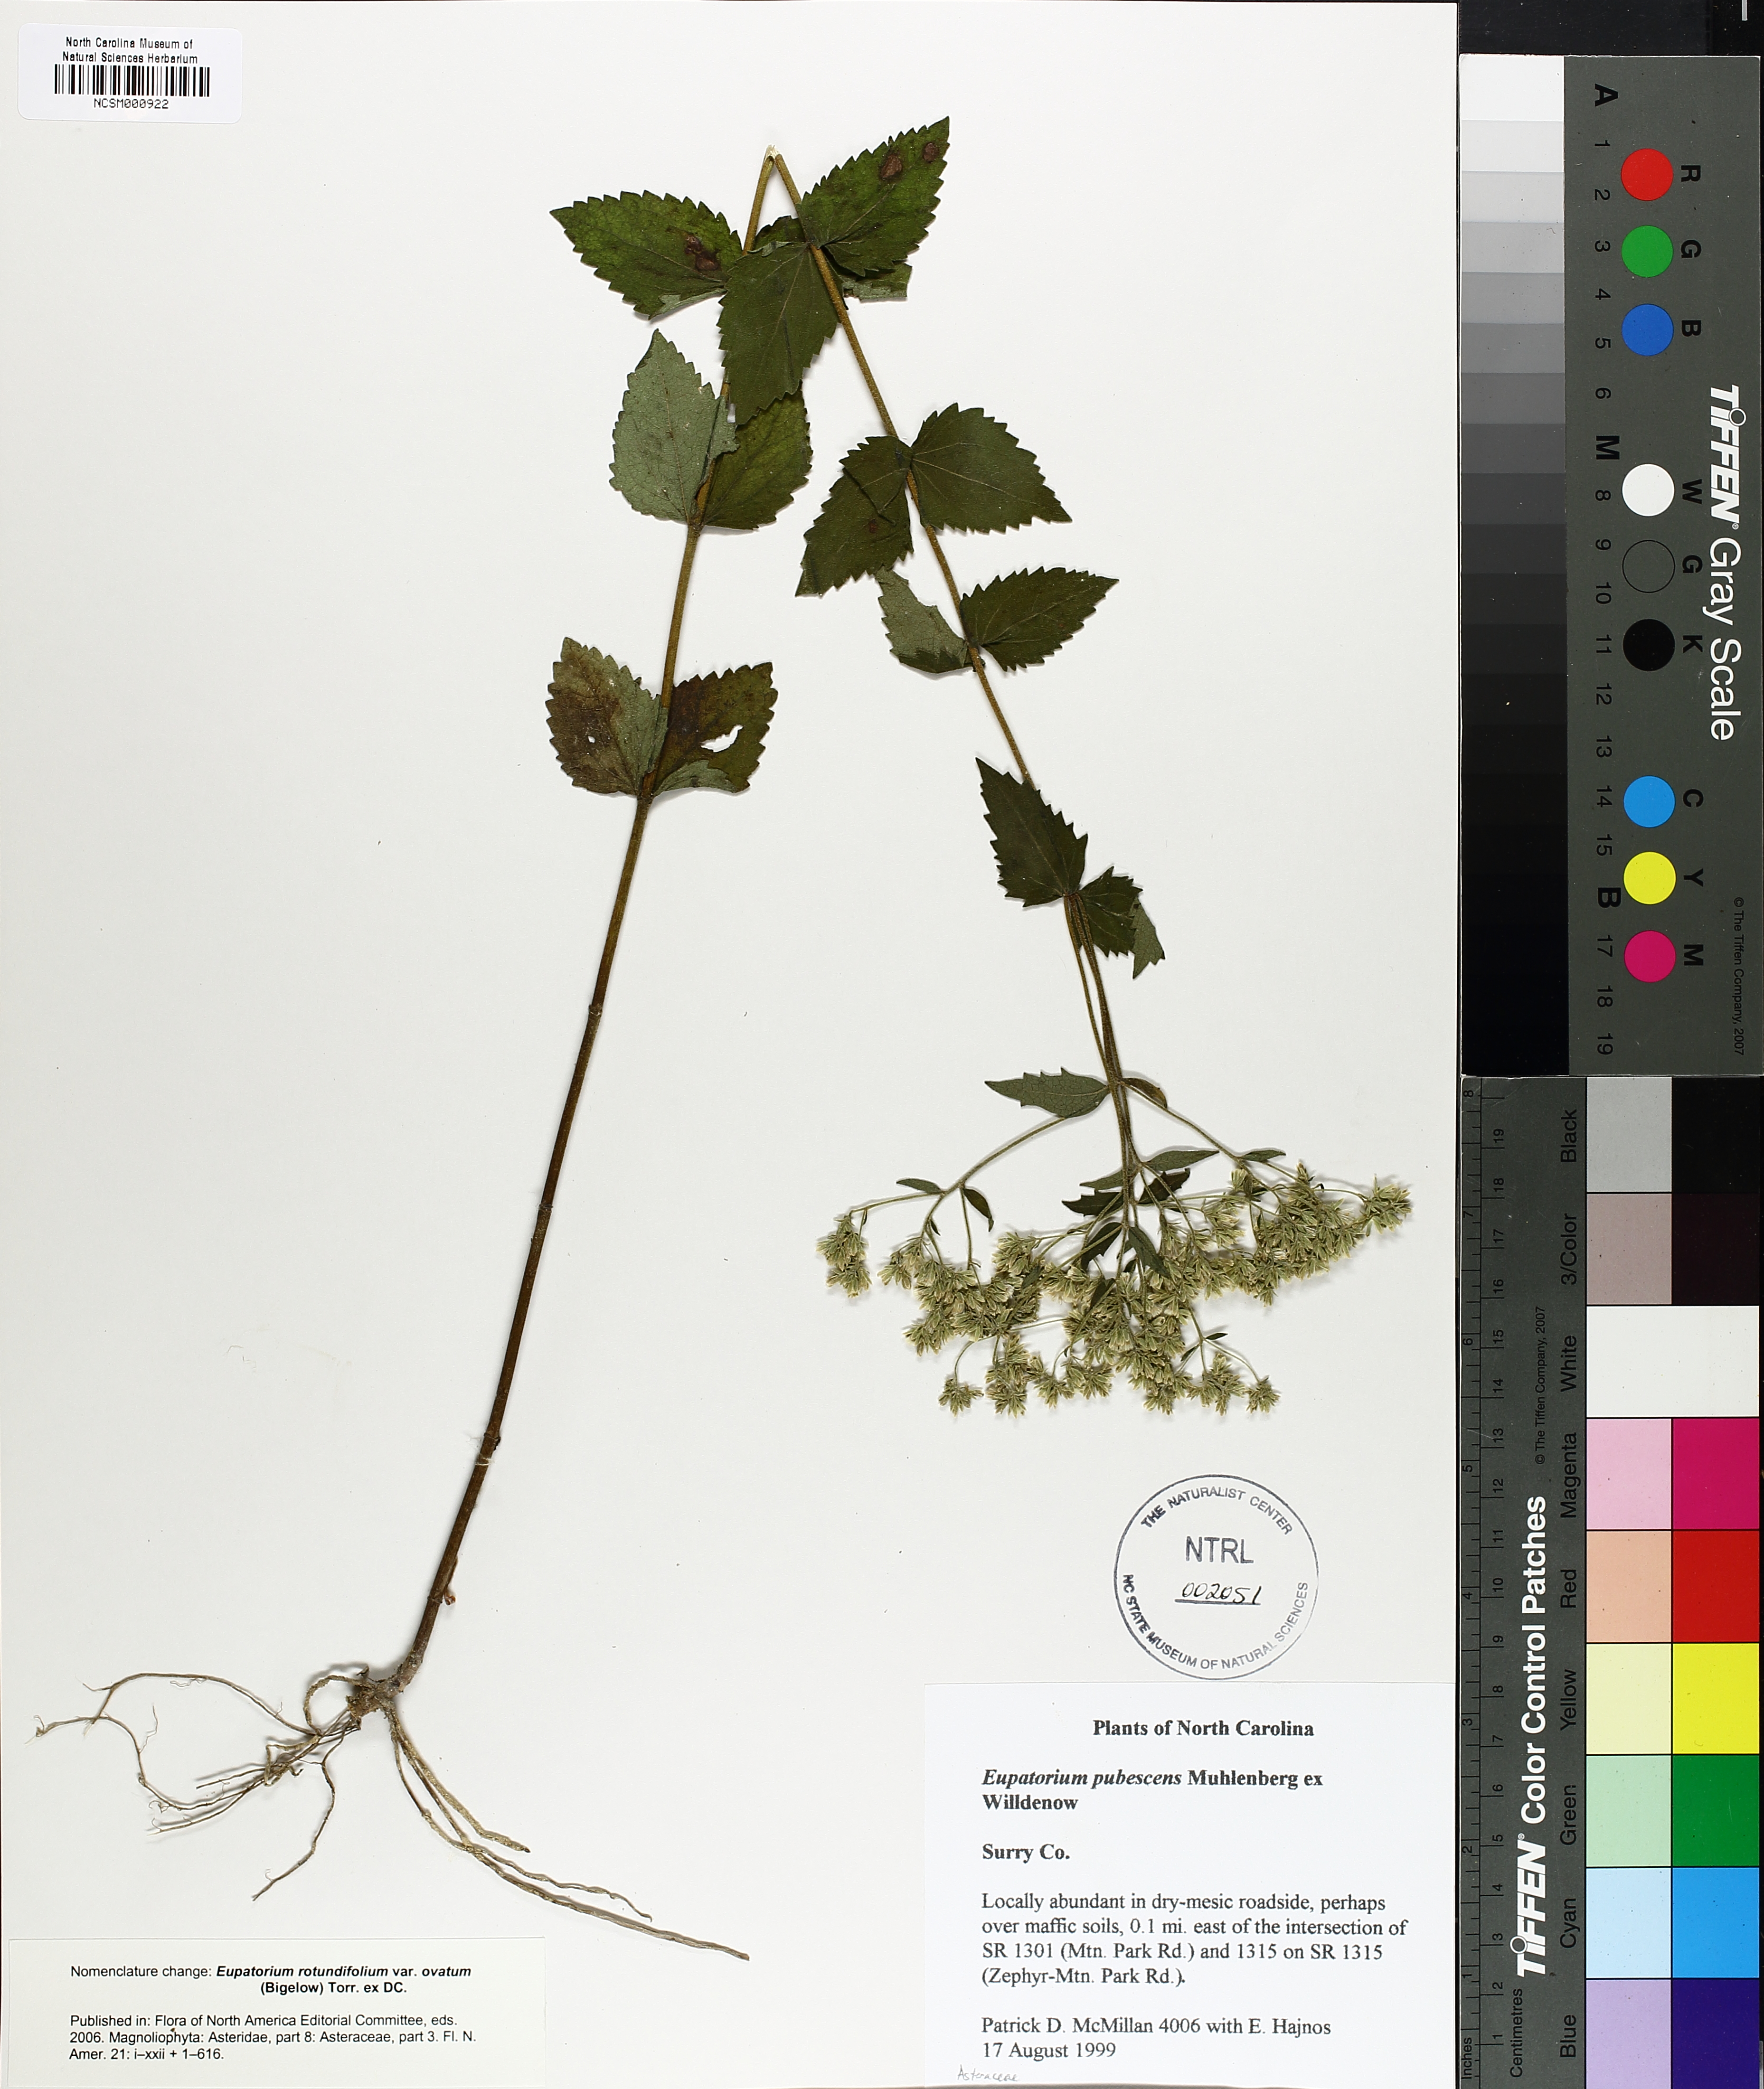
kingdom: Plantae
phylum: Tracheophyta
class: Magnoliopsida
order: Asterales
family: Asteraceae
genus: Eupatorium
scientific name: Eupatorium rotundifolium
